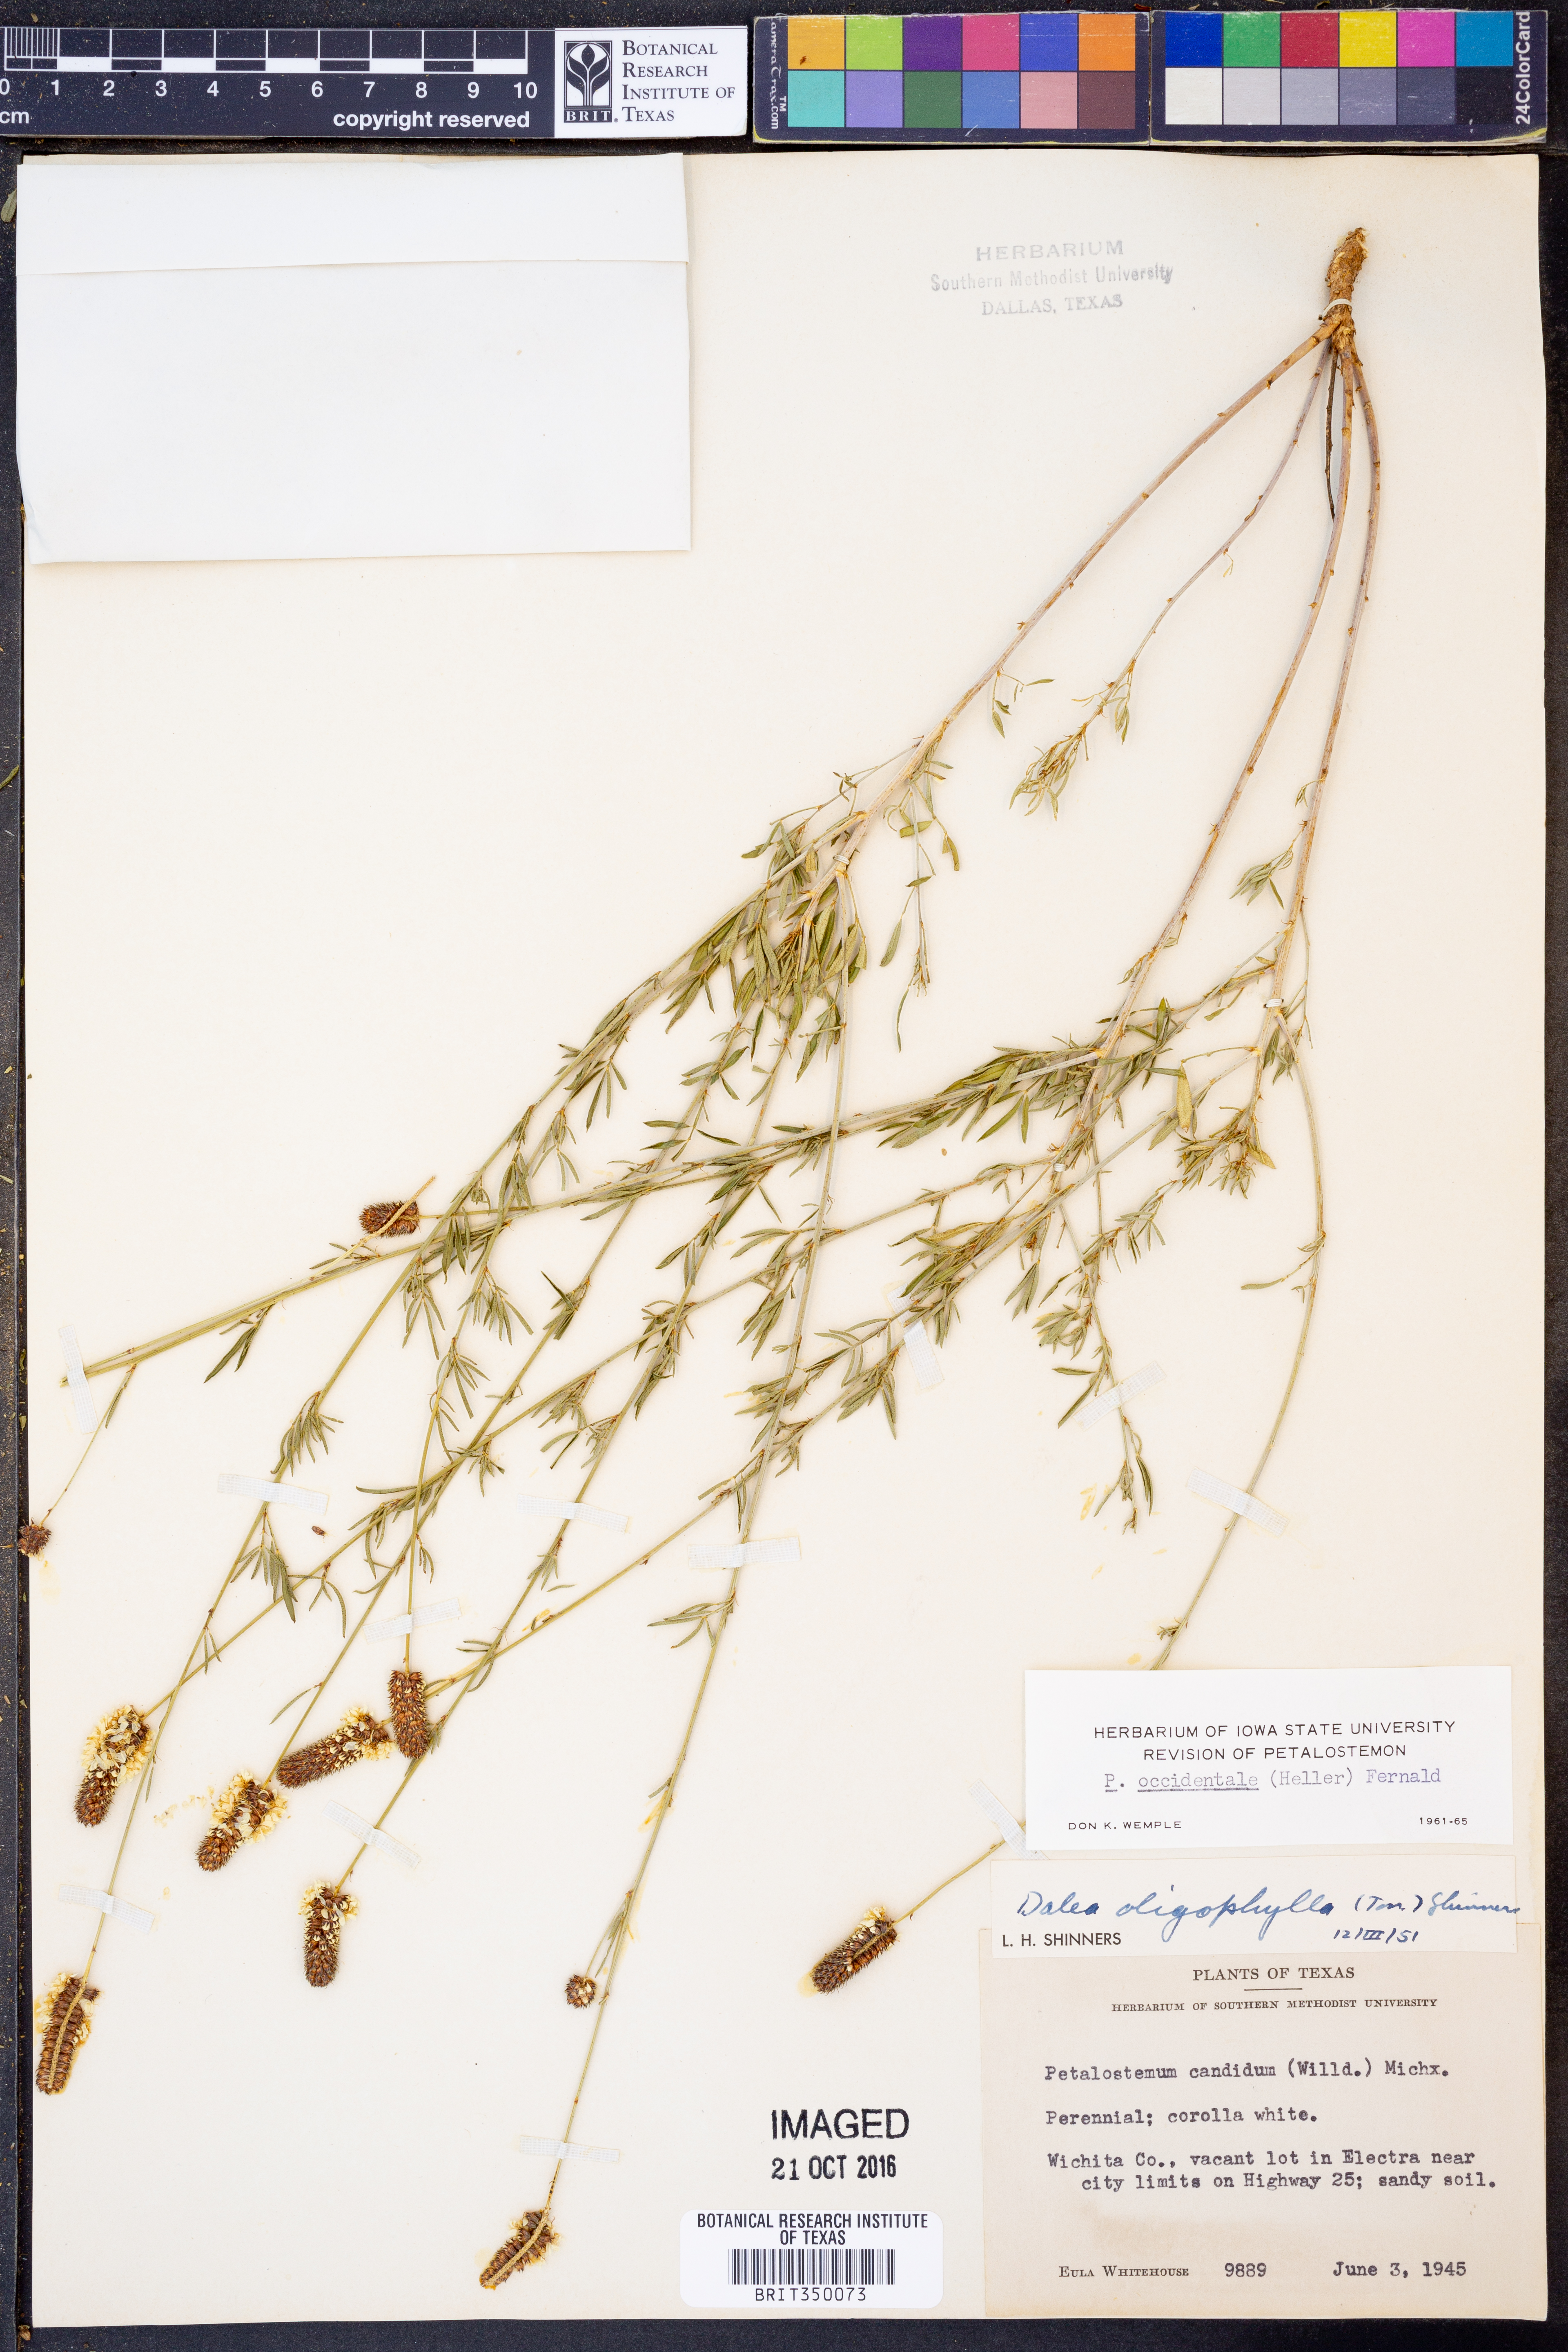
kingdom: Plantae
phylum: Tracheophyta
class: Magnoliopsida
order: Fabales
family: Fabaceae
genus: Dalea
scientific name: Dalea candida
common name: White prairie-clover
